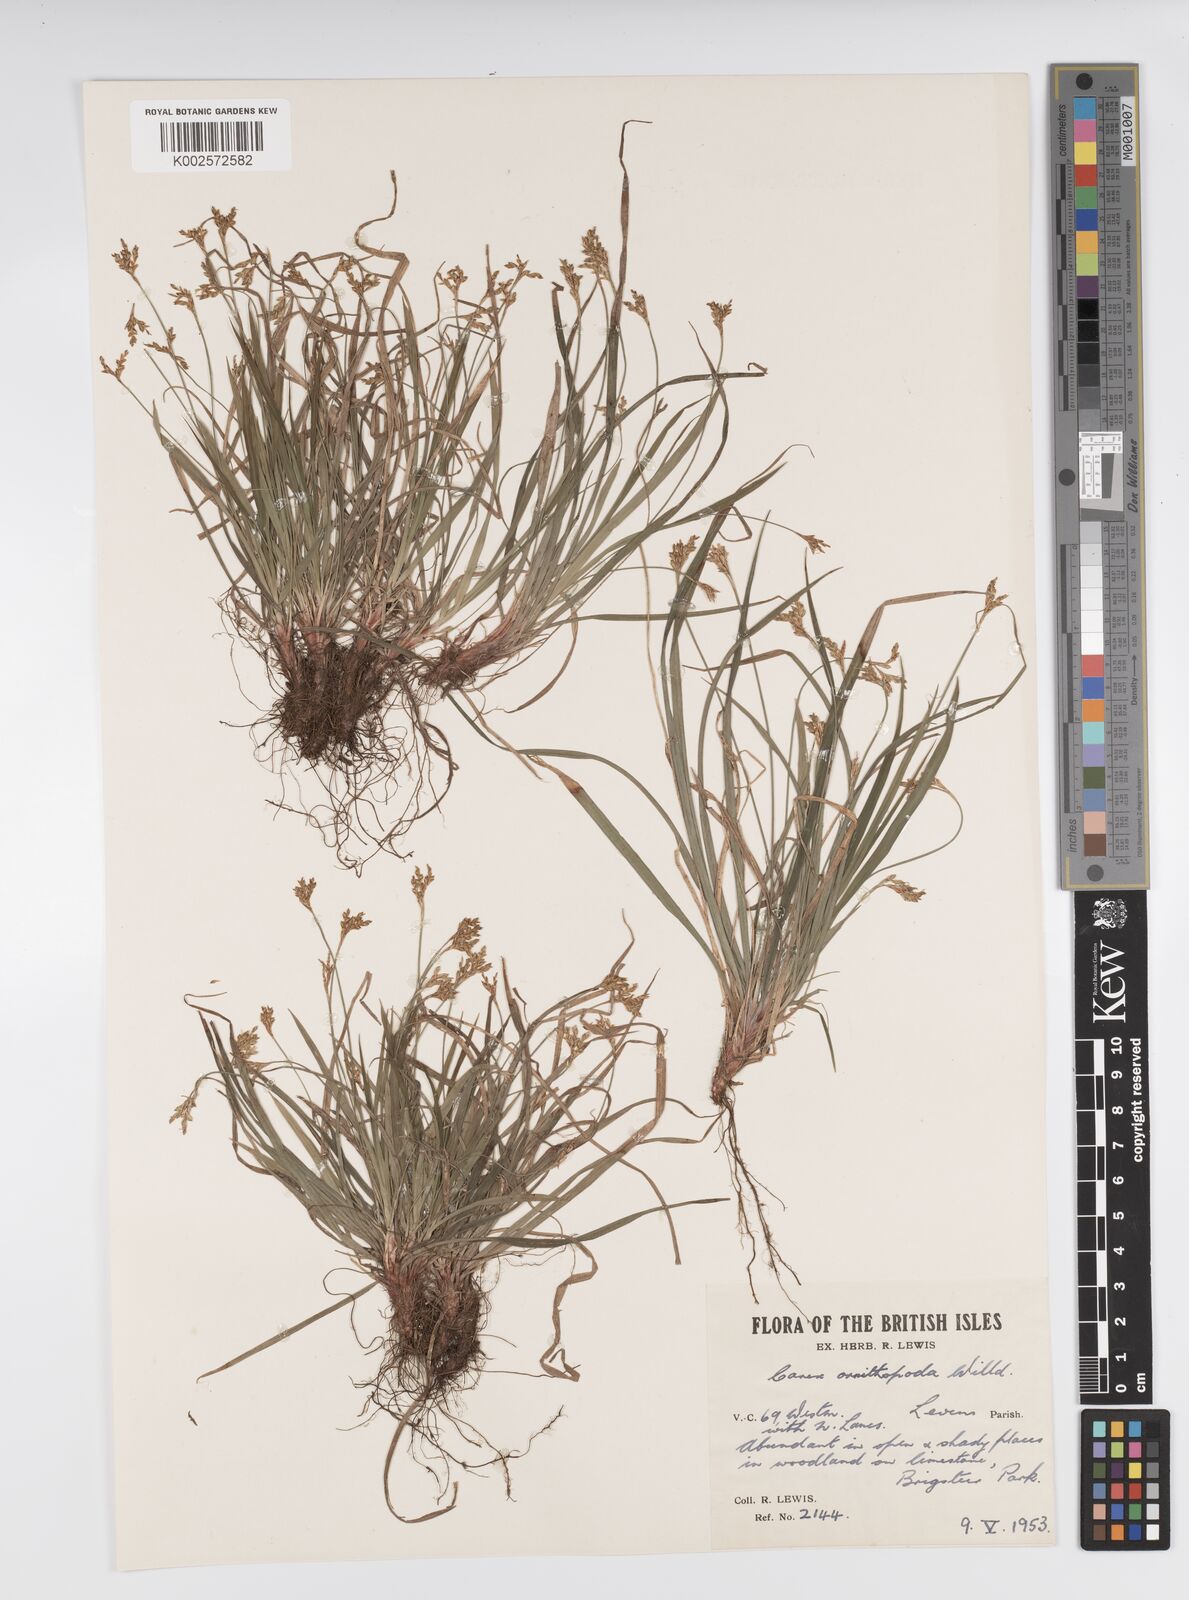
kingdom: Plantae
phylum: Tracheophyta
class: Liliopsida
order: Poales
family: Cyperaceae
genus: Carex
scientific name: Carex ornithopoda
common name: Bird's-foot sedge
